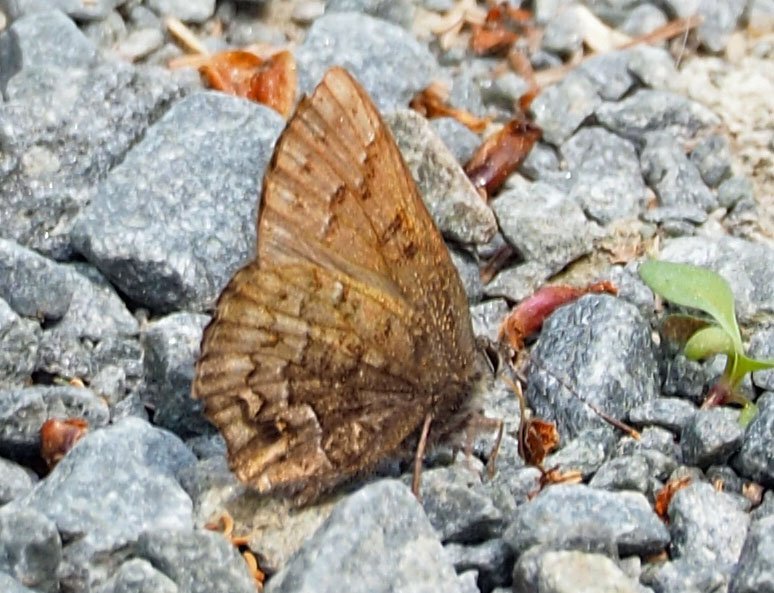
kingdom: Animalia
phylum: Arthropoda
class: Insecta
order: Lepidoptera
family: Lycaenidae
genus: Incisalia
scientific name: Incisalia niphon
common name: Eastern Pine Elfin
